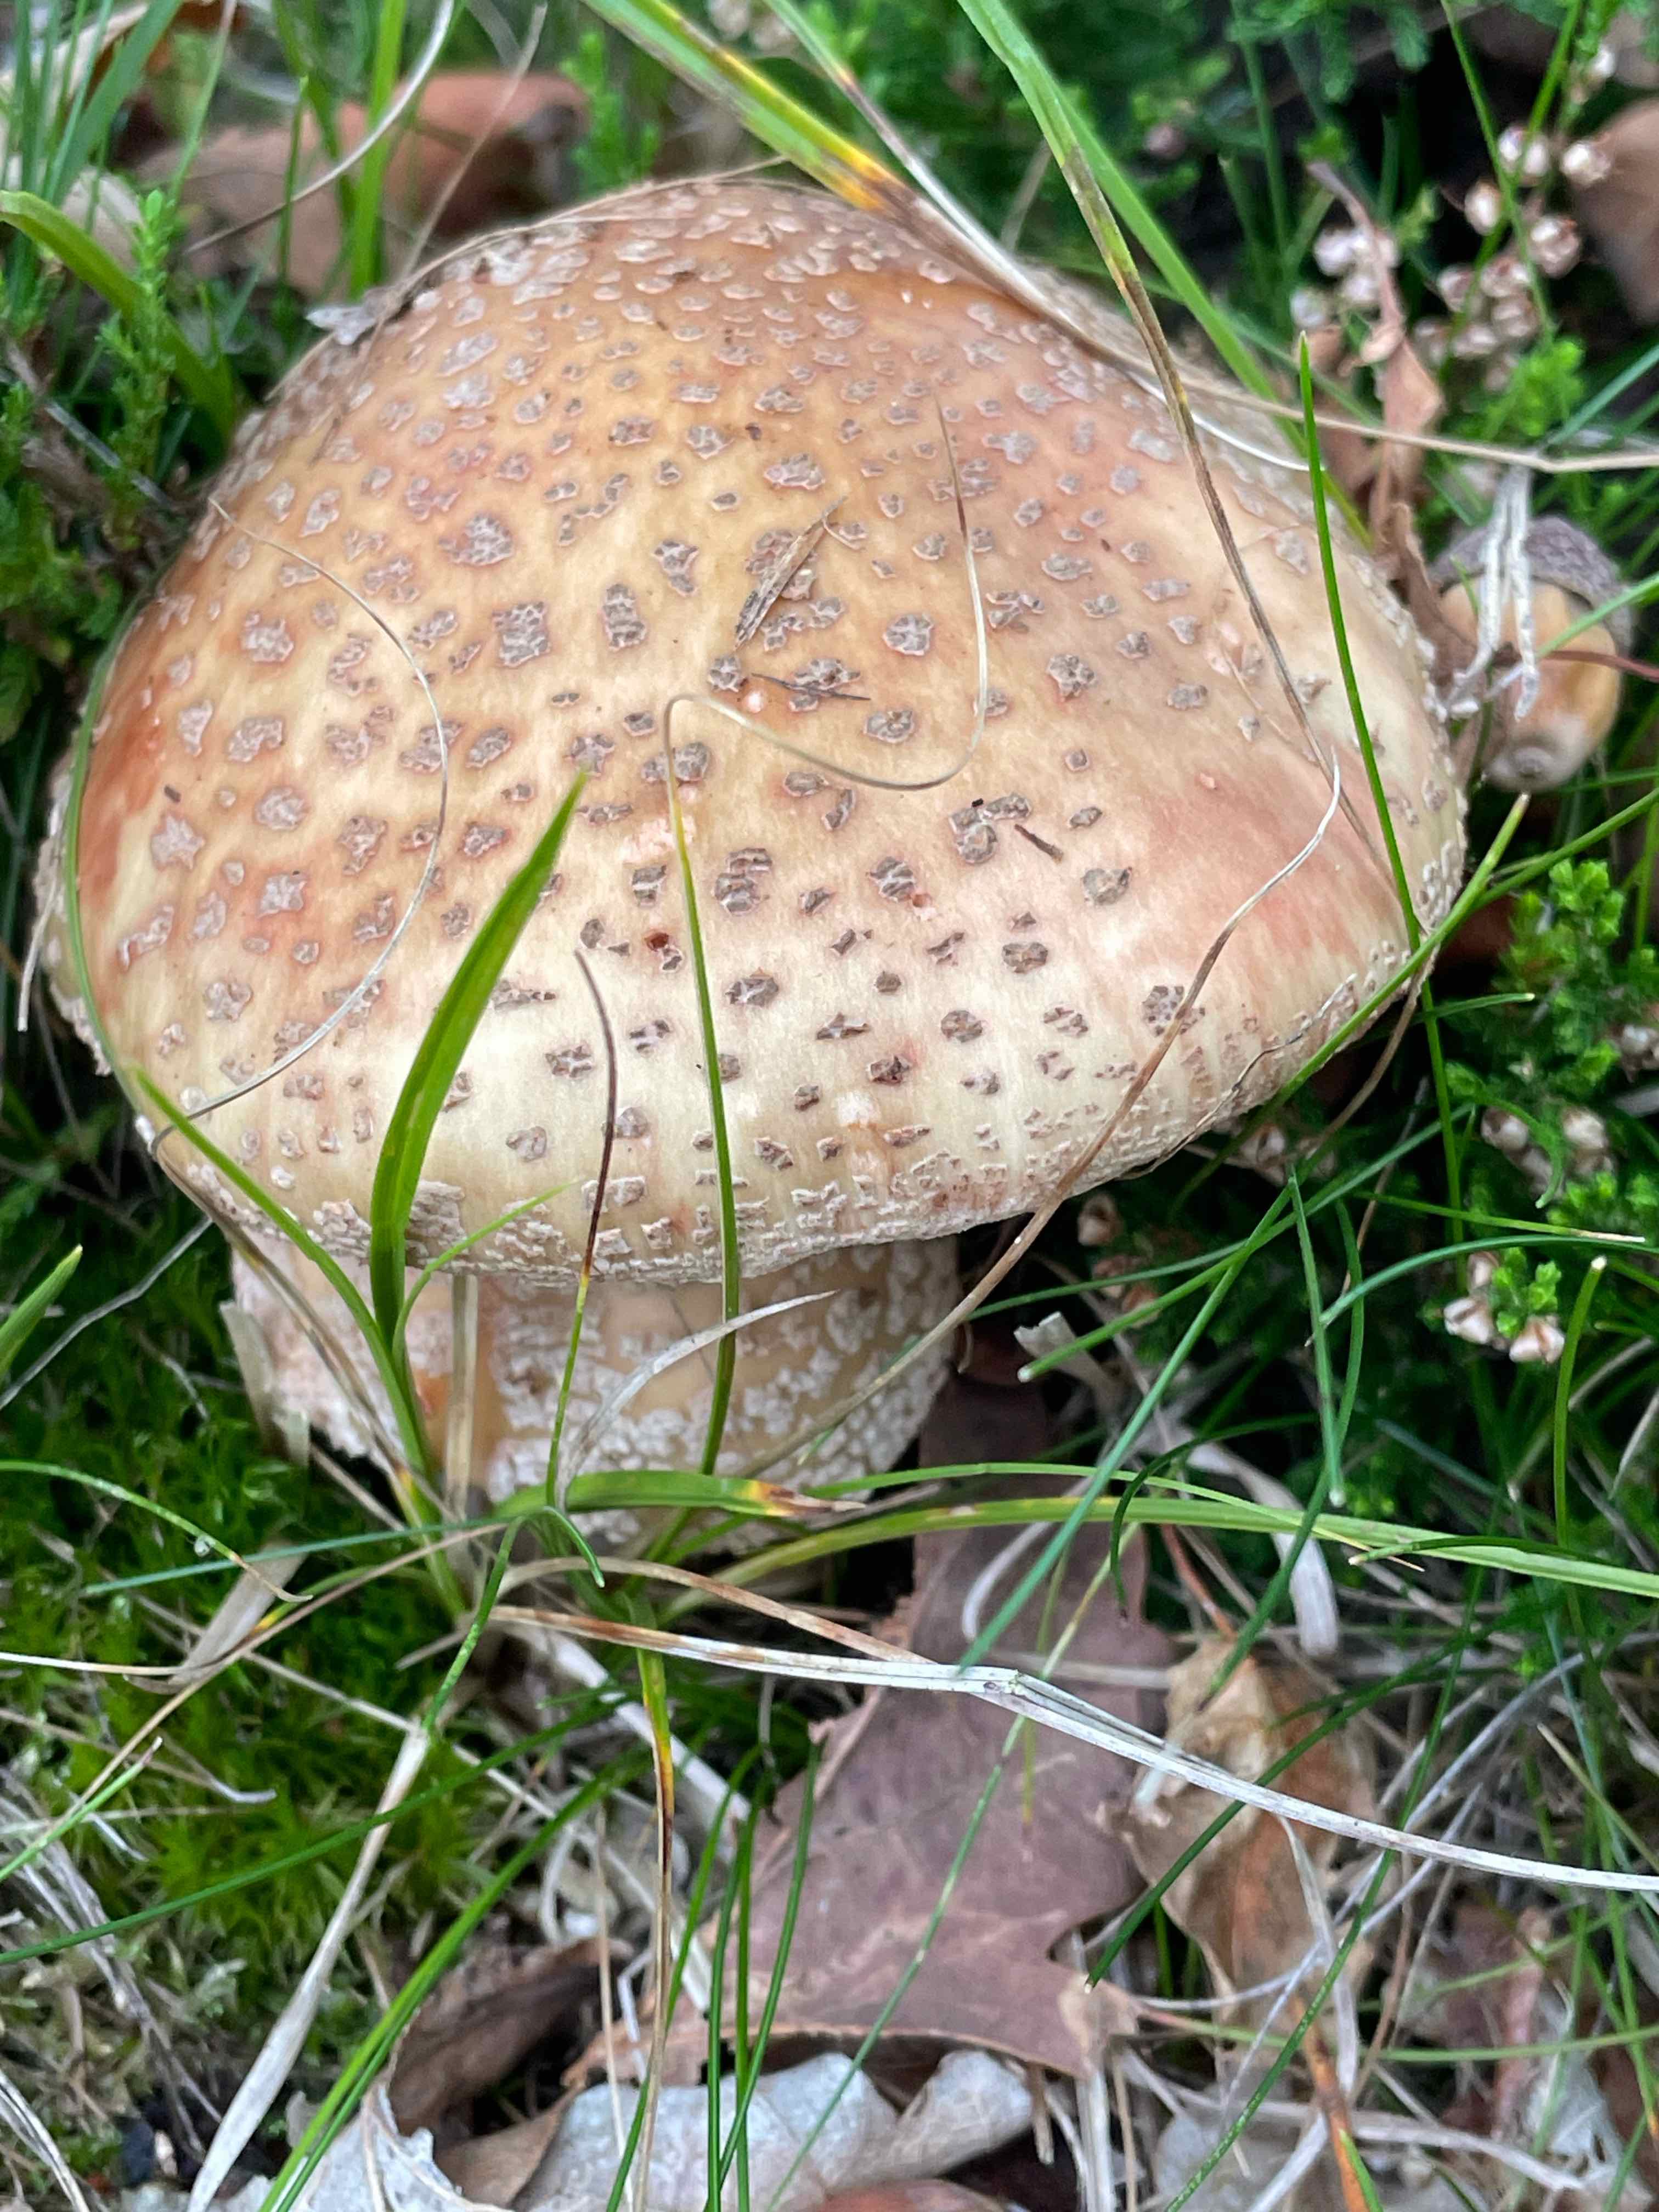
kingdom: Fungi
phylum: Basidiomycota
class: Agaricomycetes
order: Agaricales
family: Amanitaceae
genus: Amanita
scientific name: Amanita rubescens
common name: rødmende fluesvamp
